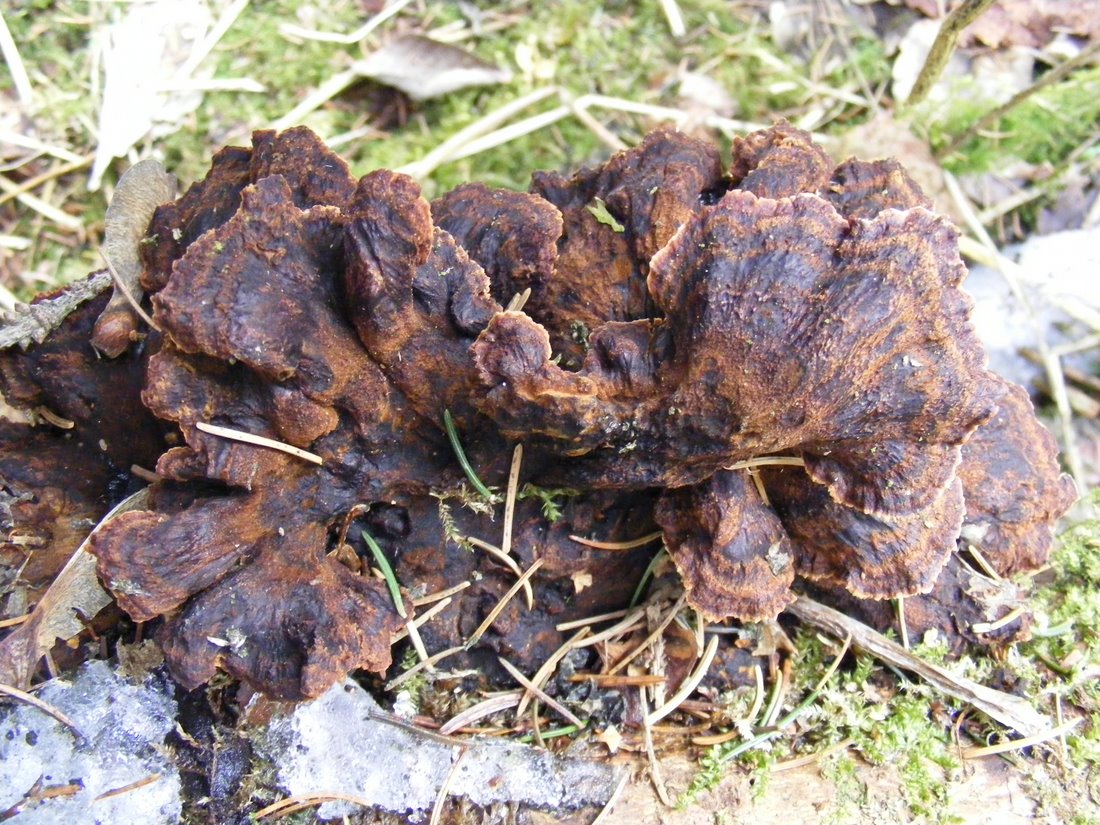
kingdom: Fungi
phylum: Basidiomycota
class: Agaricomycetes
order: Polyporales
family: Ischnodermataceae
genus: Ischnoderma
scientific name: Ischnoderma benzoinum
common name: gran-tjæreporesvamp
